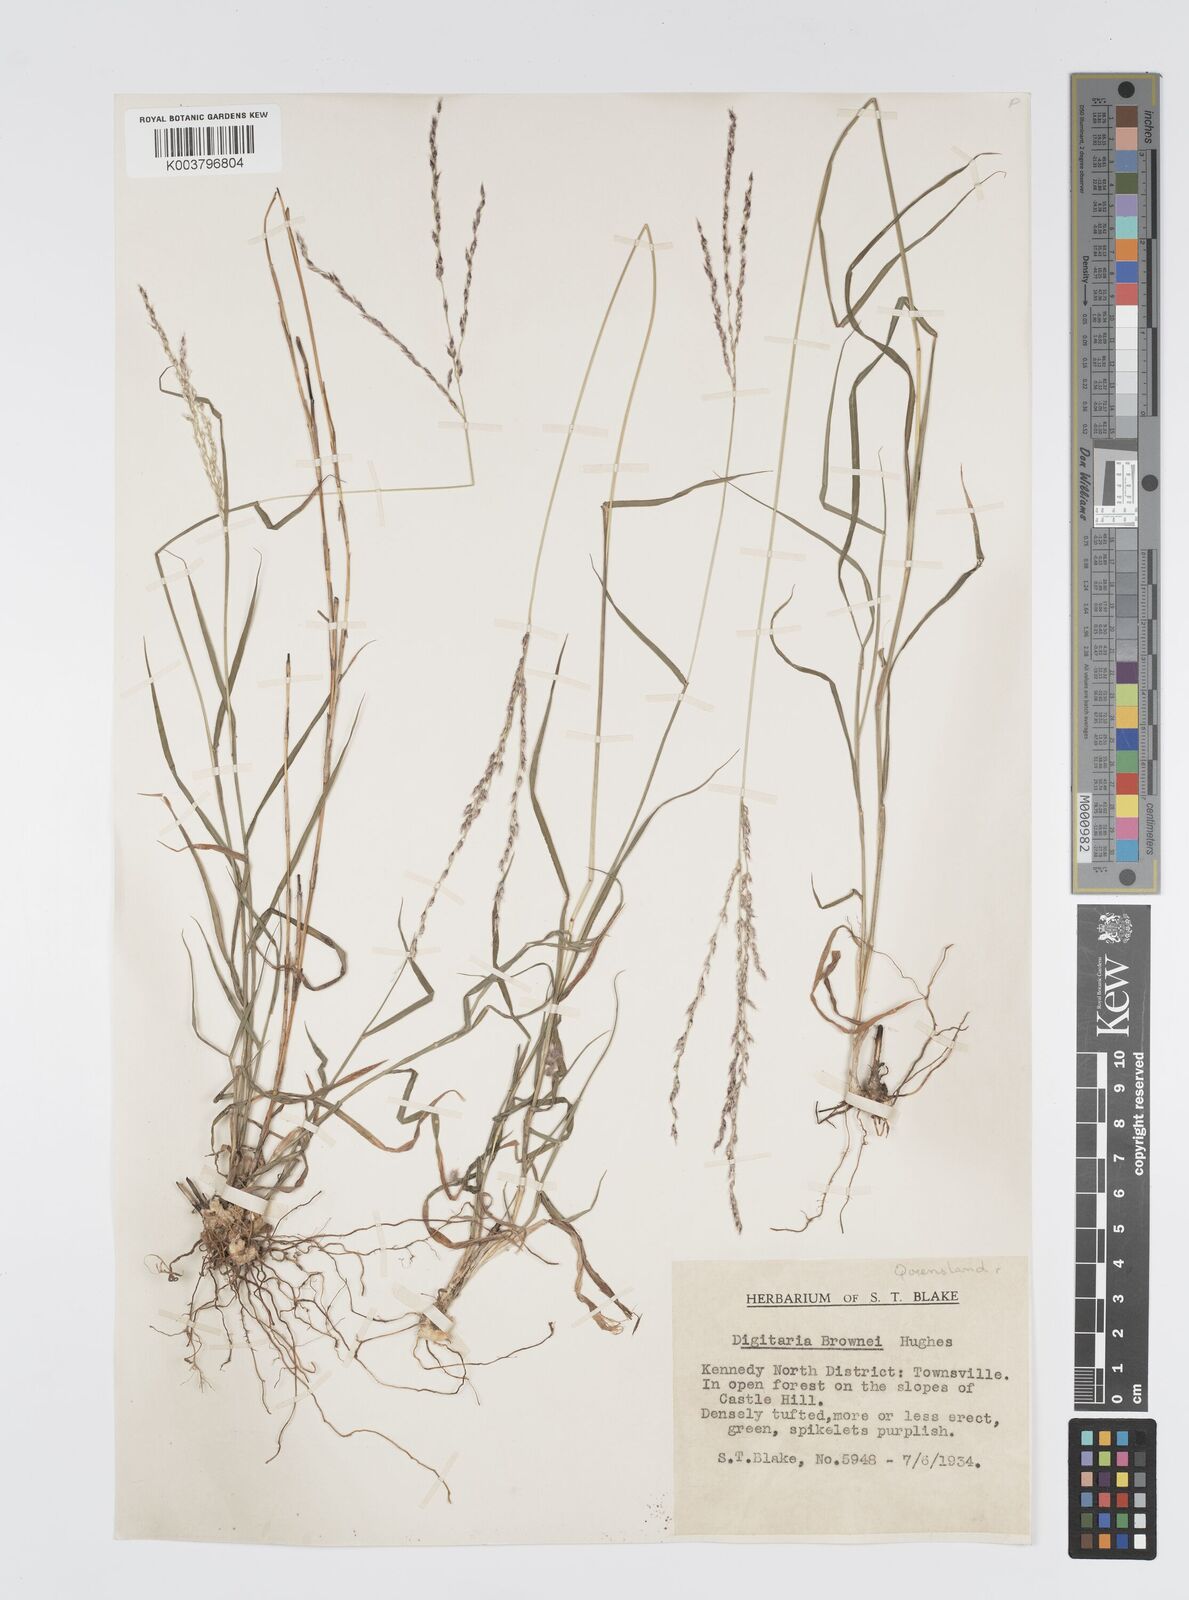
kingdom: Plantae
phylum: Tracheophyta
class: Liliopsida
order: Poales
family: Poaceae
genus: Digitaria
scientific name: Digitaria brownii
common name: Cotton grass
